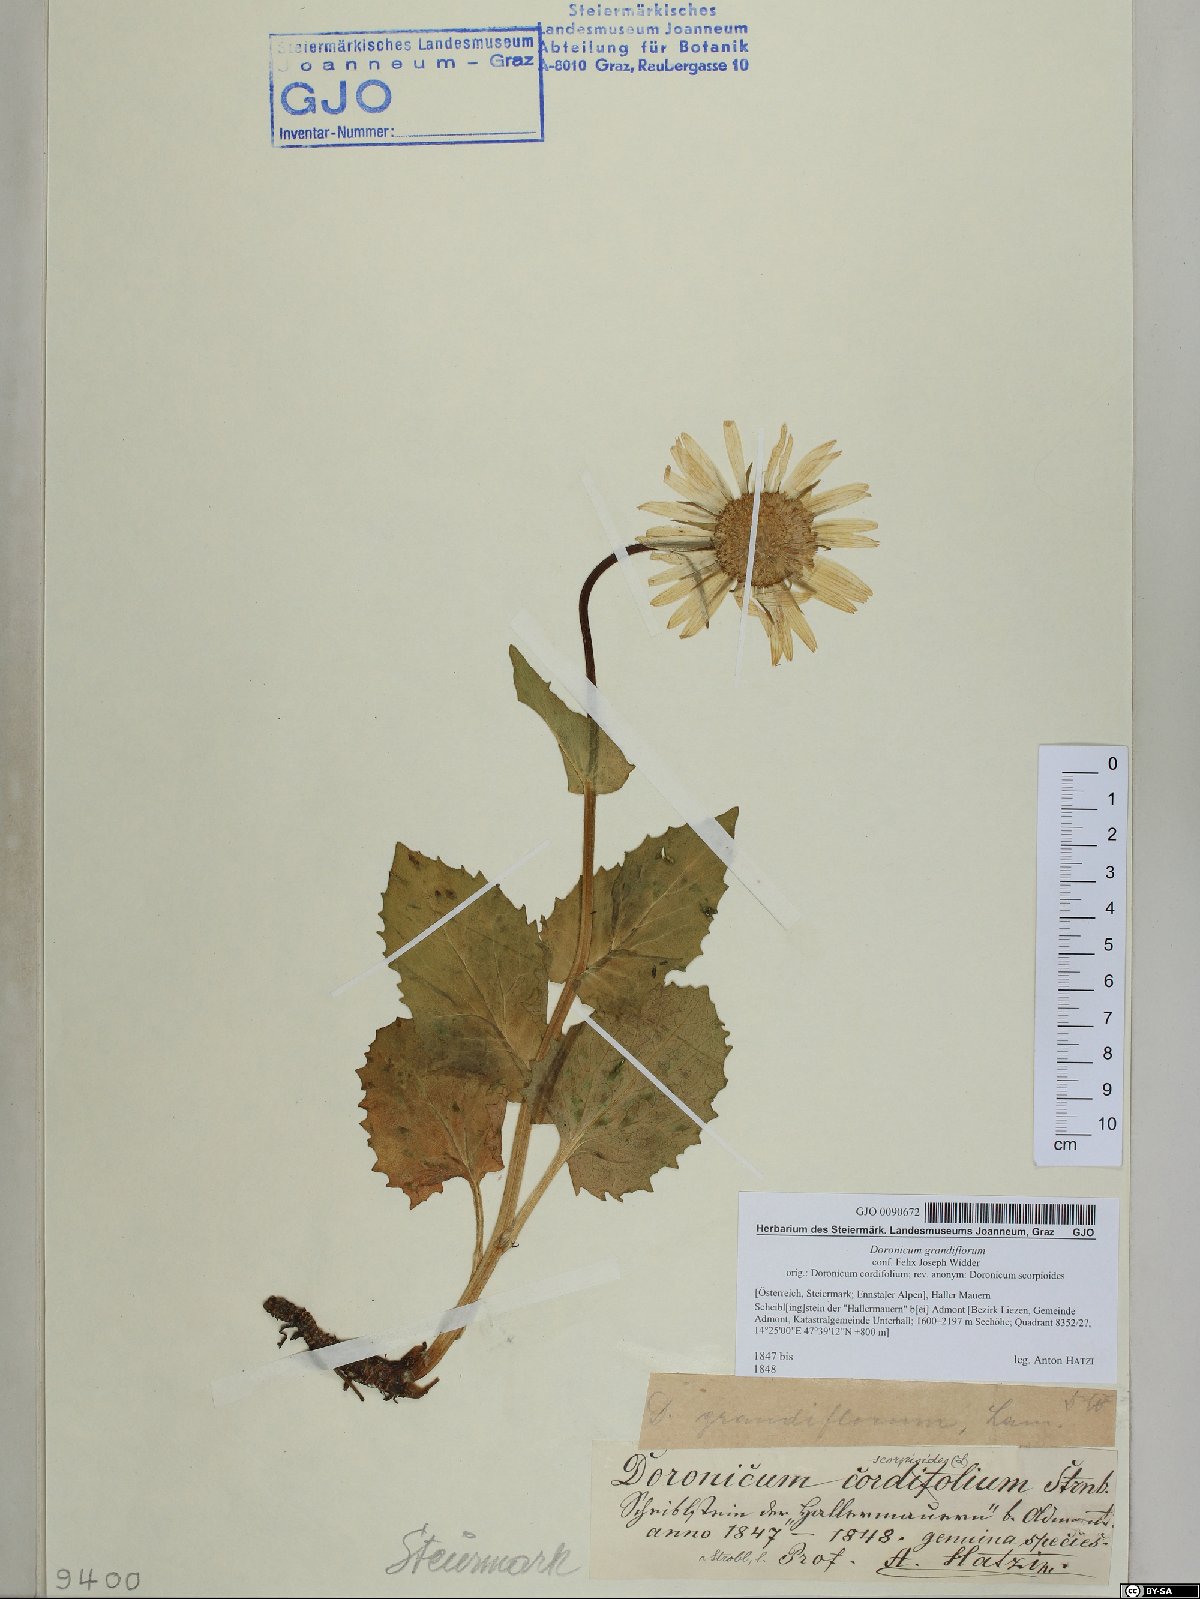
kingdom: Plantae
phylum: Tracheophyta
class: Magnoliopsida
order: Asterales
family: Asteraceae
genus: Doronicum
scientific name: Doronicum grandiflorum
